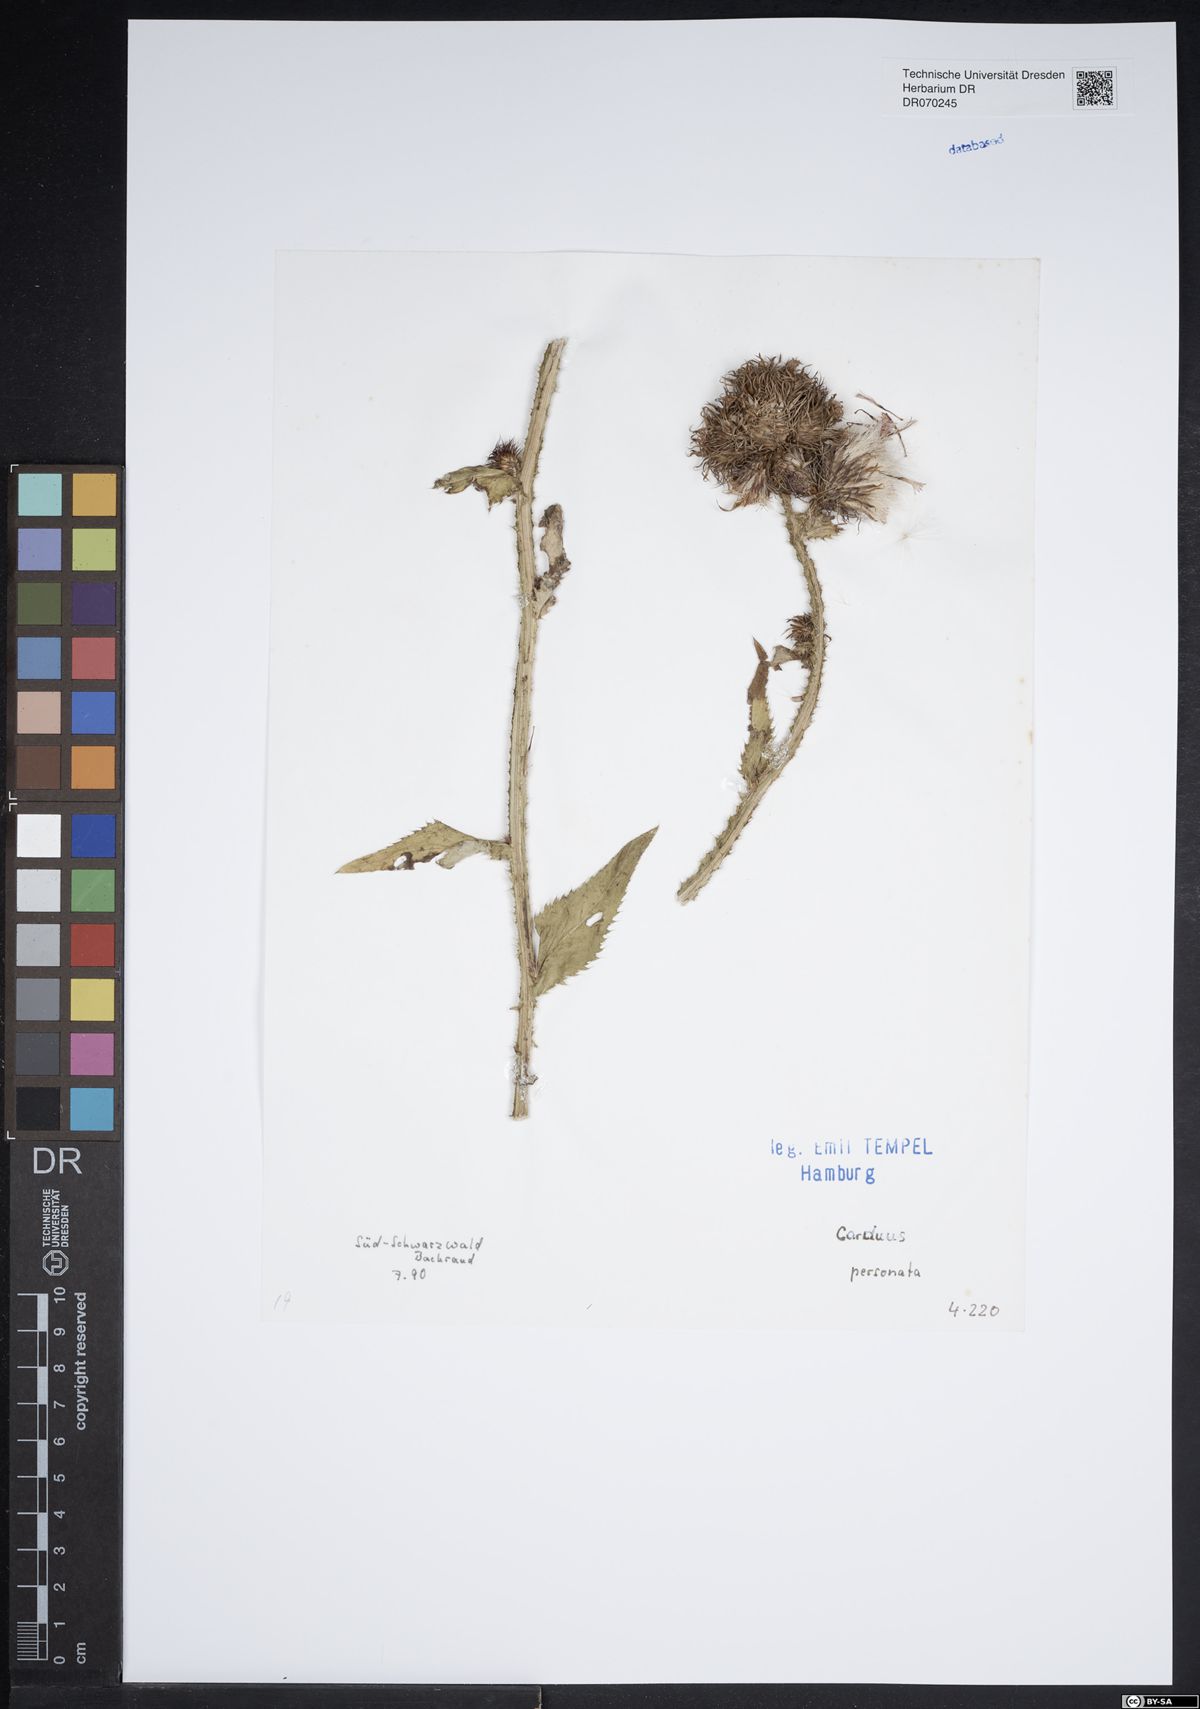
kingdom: Plantae
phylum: Tracheophyta
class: Magnoliopsida
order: Asterales
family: Asteraceae
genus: Carduus
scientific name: Carduus personata
